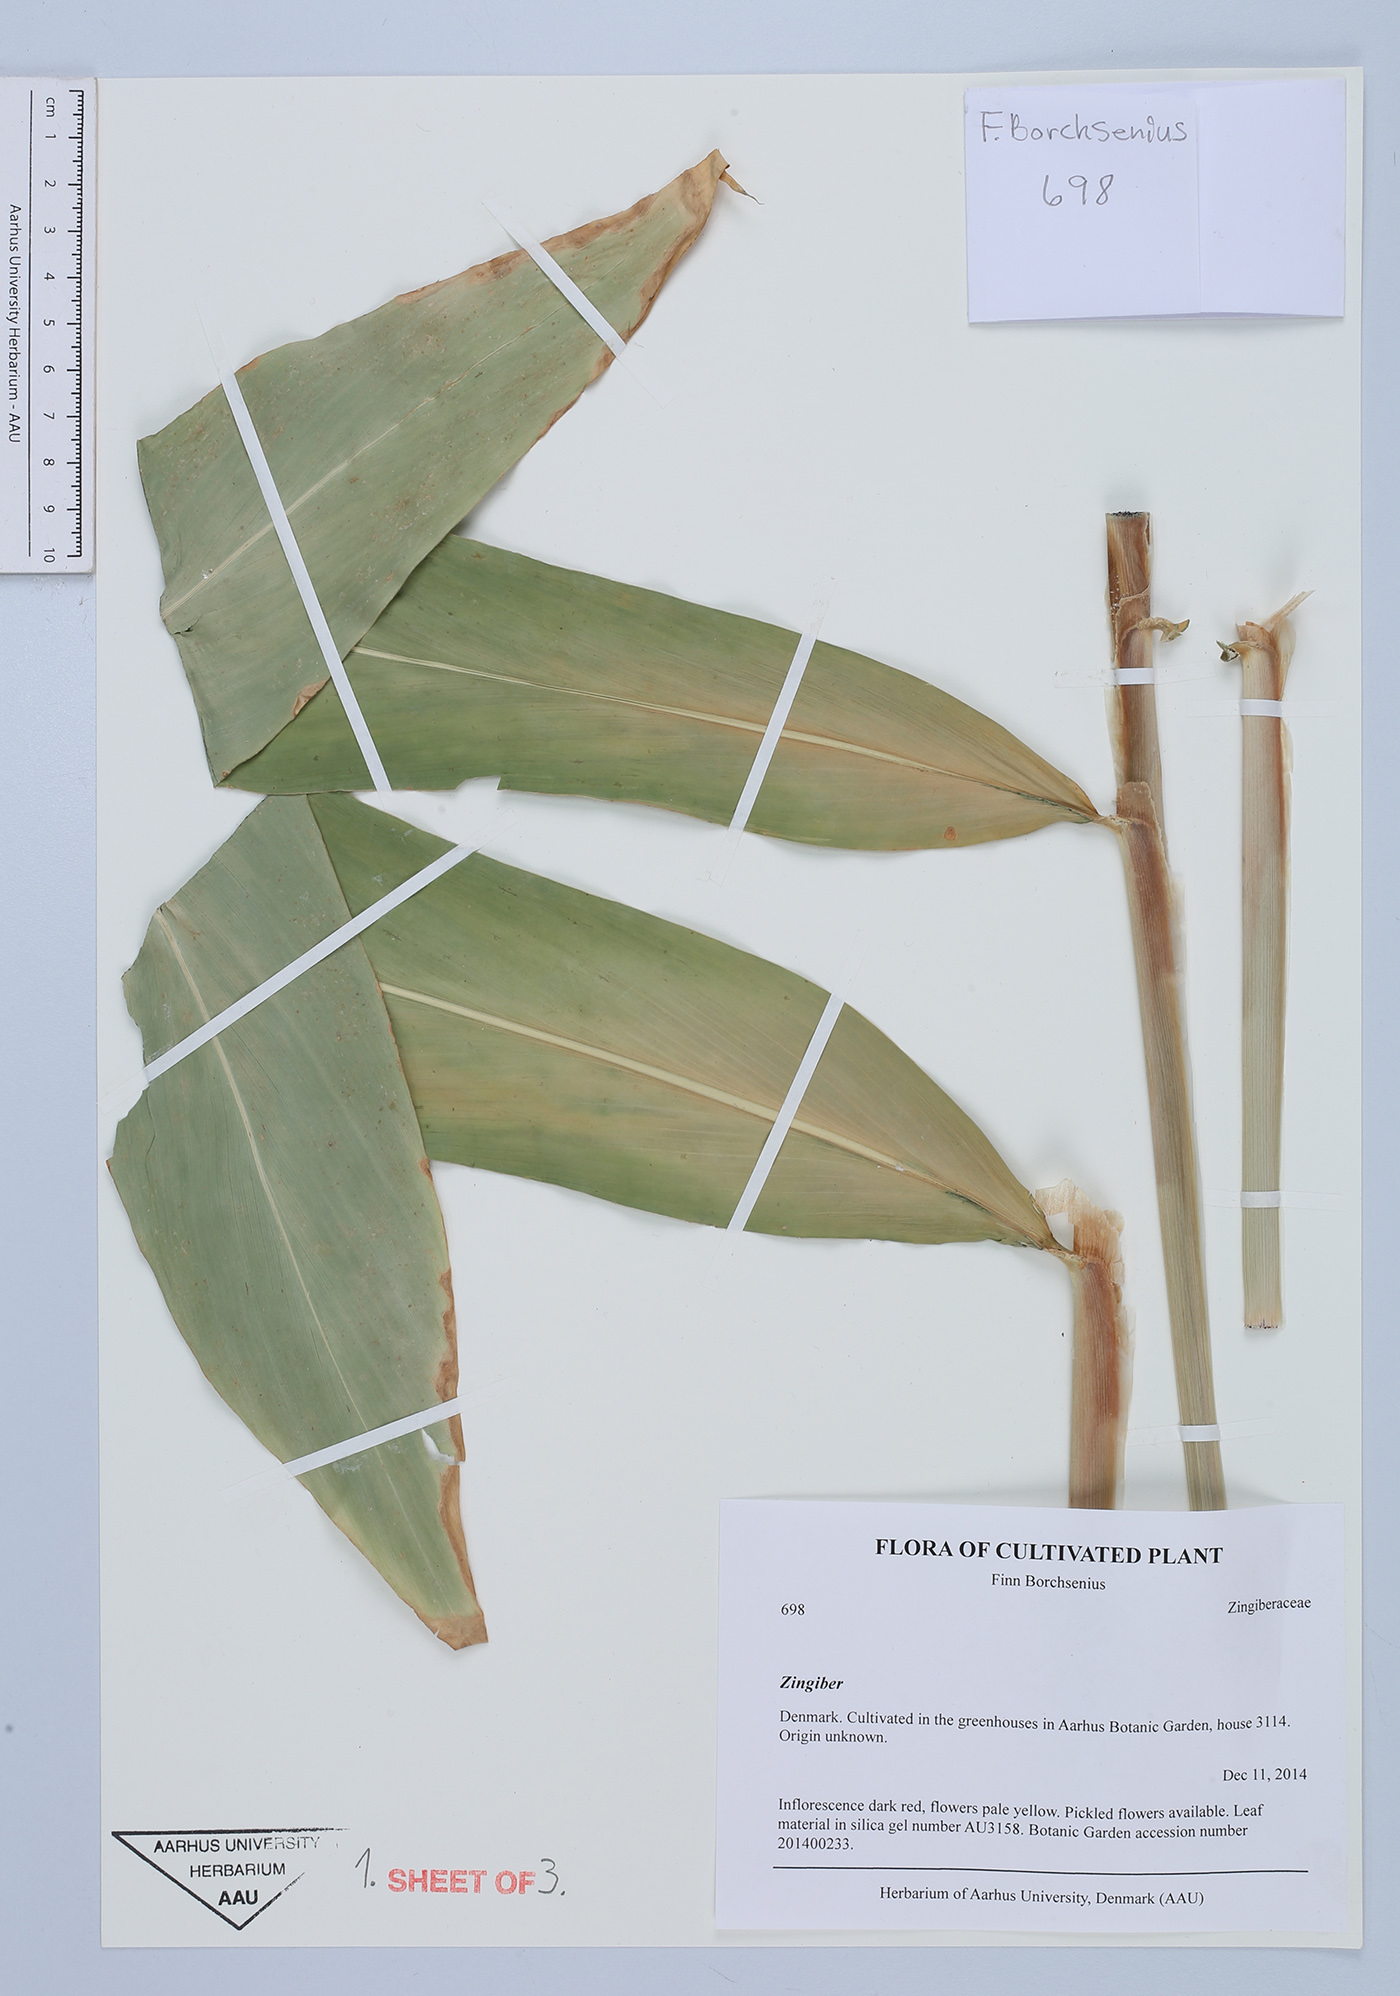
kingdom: Plantae
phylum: Tracheophyta
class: Liliopsida
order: Zingiberales
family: Zingiberaceae
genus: Zingiber
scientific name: Zingiber
